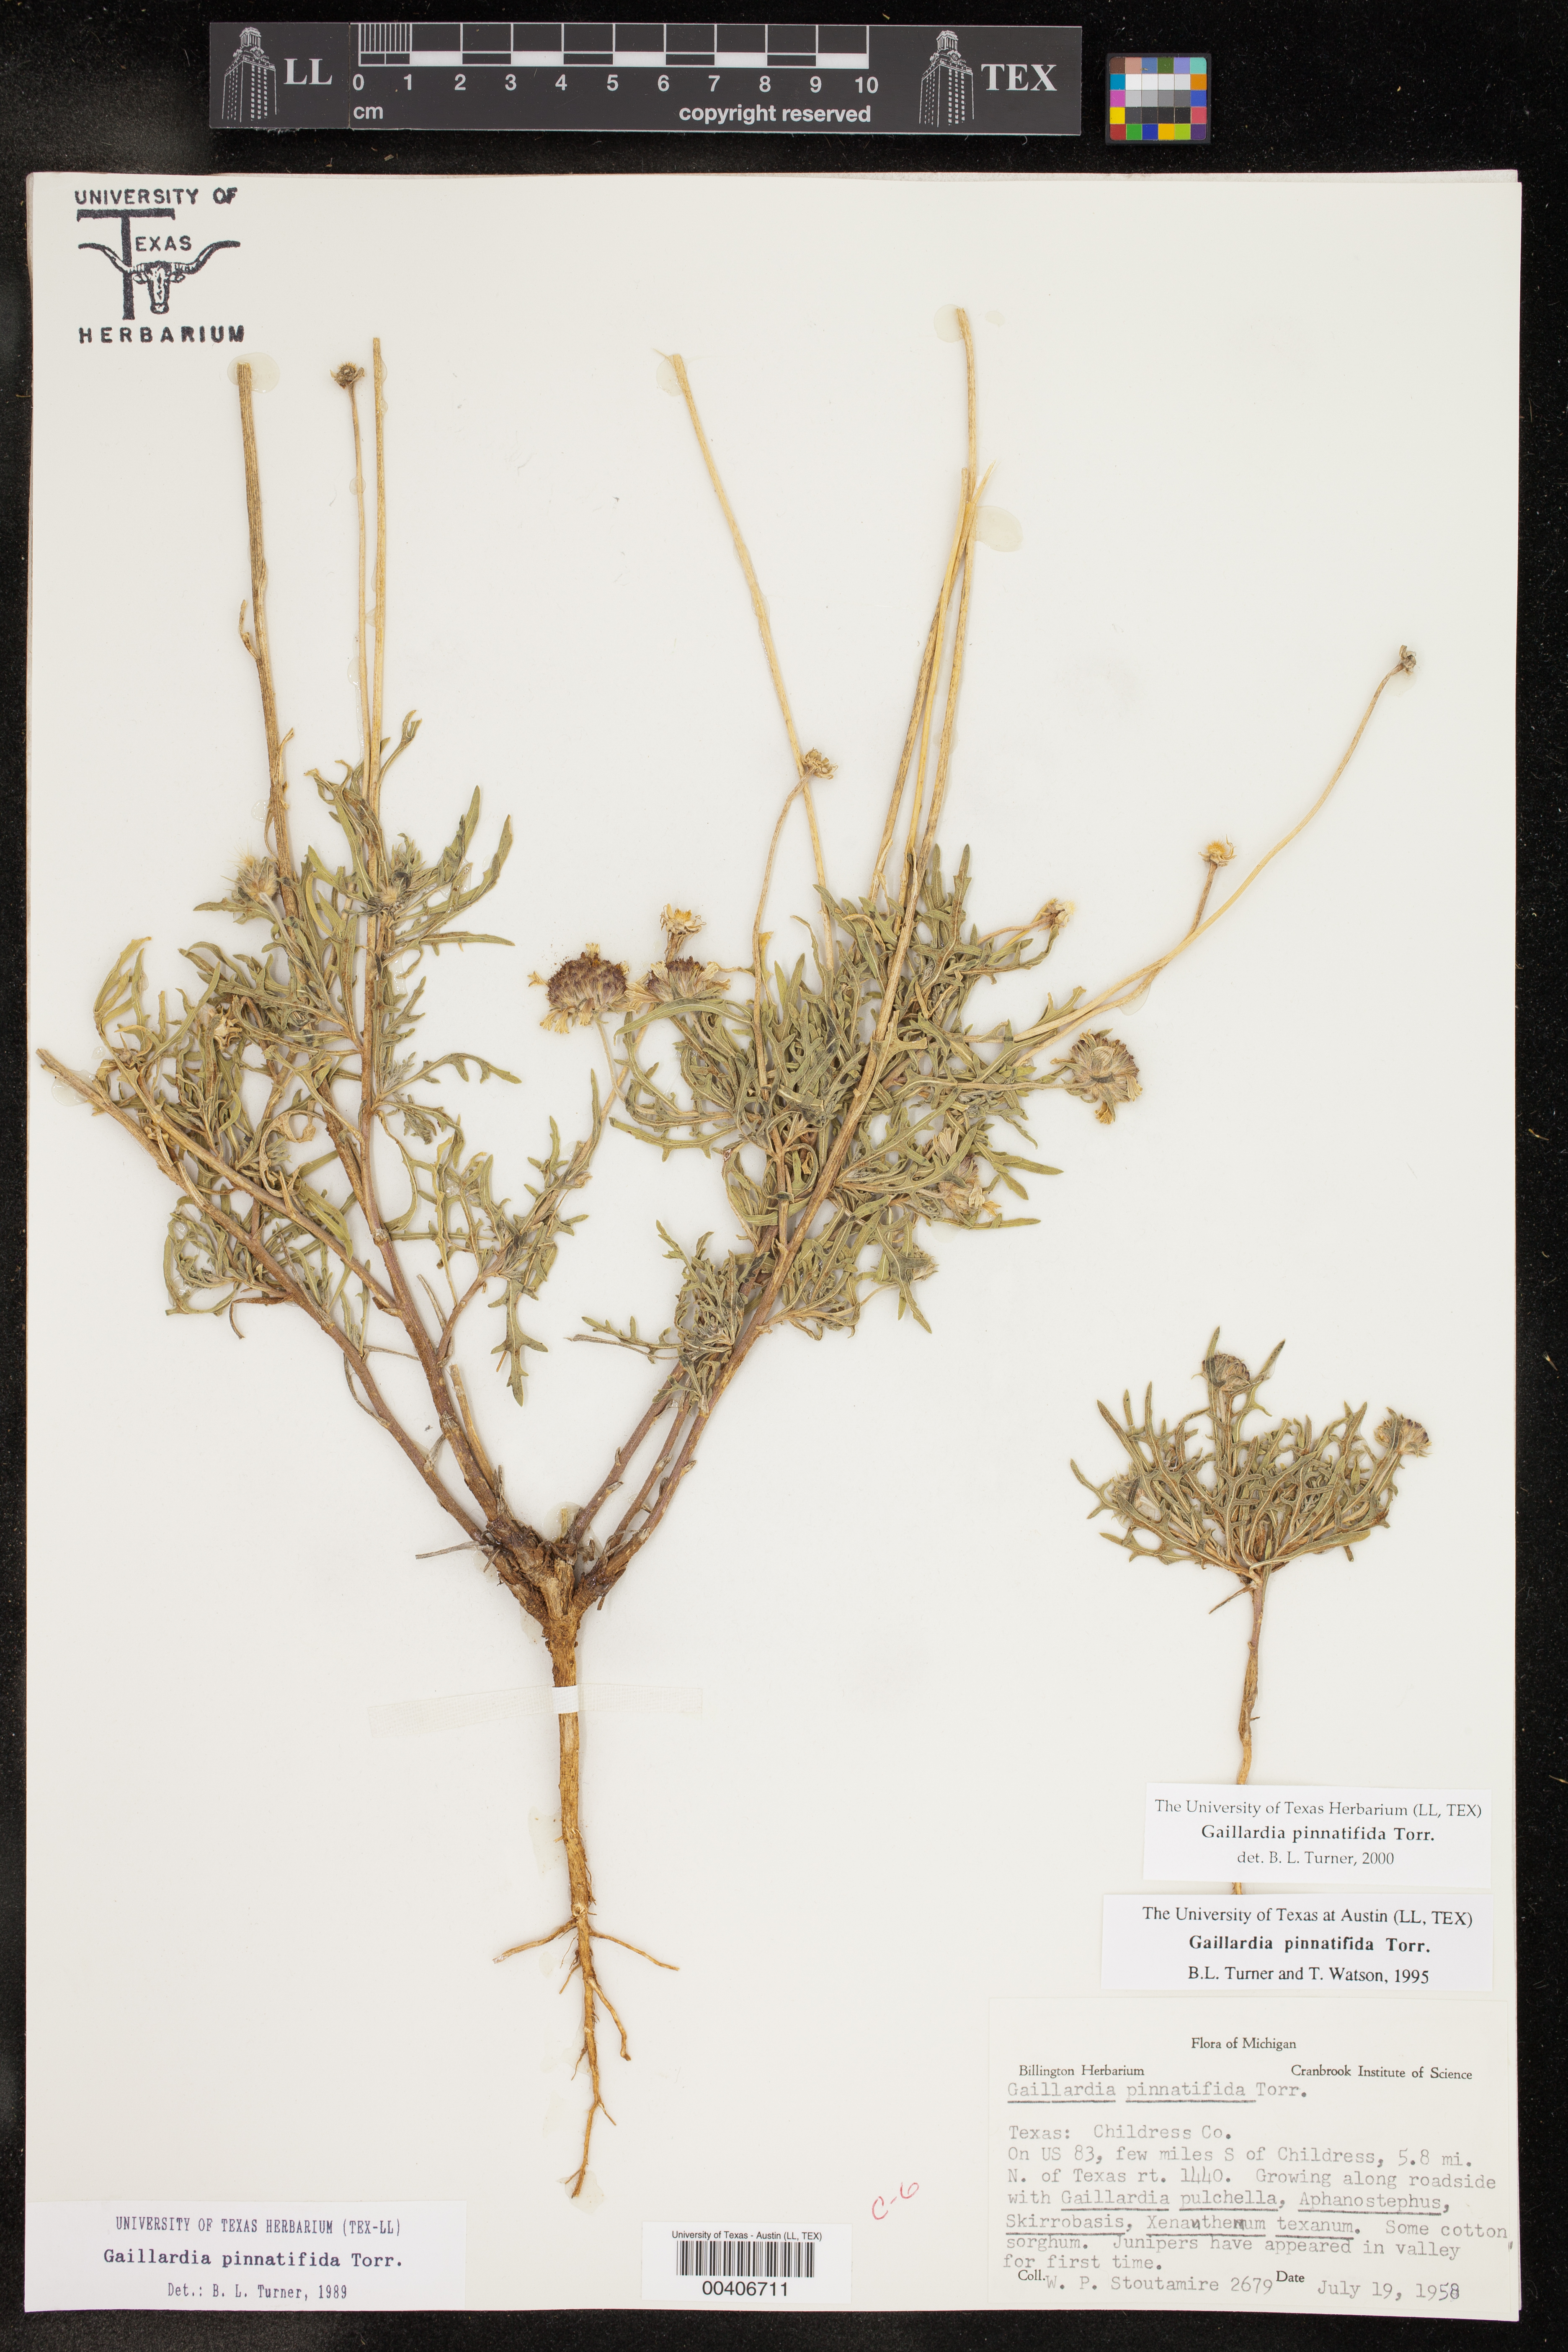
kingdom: Plantae
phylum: Tracheophyta
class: Magnoliopsida
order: Asterales
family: Asteraceae
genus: Gaillardia
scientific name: Gaillardia pinnatifida
